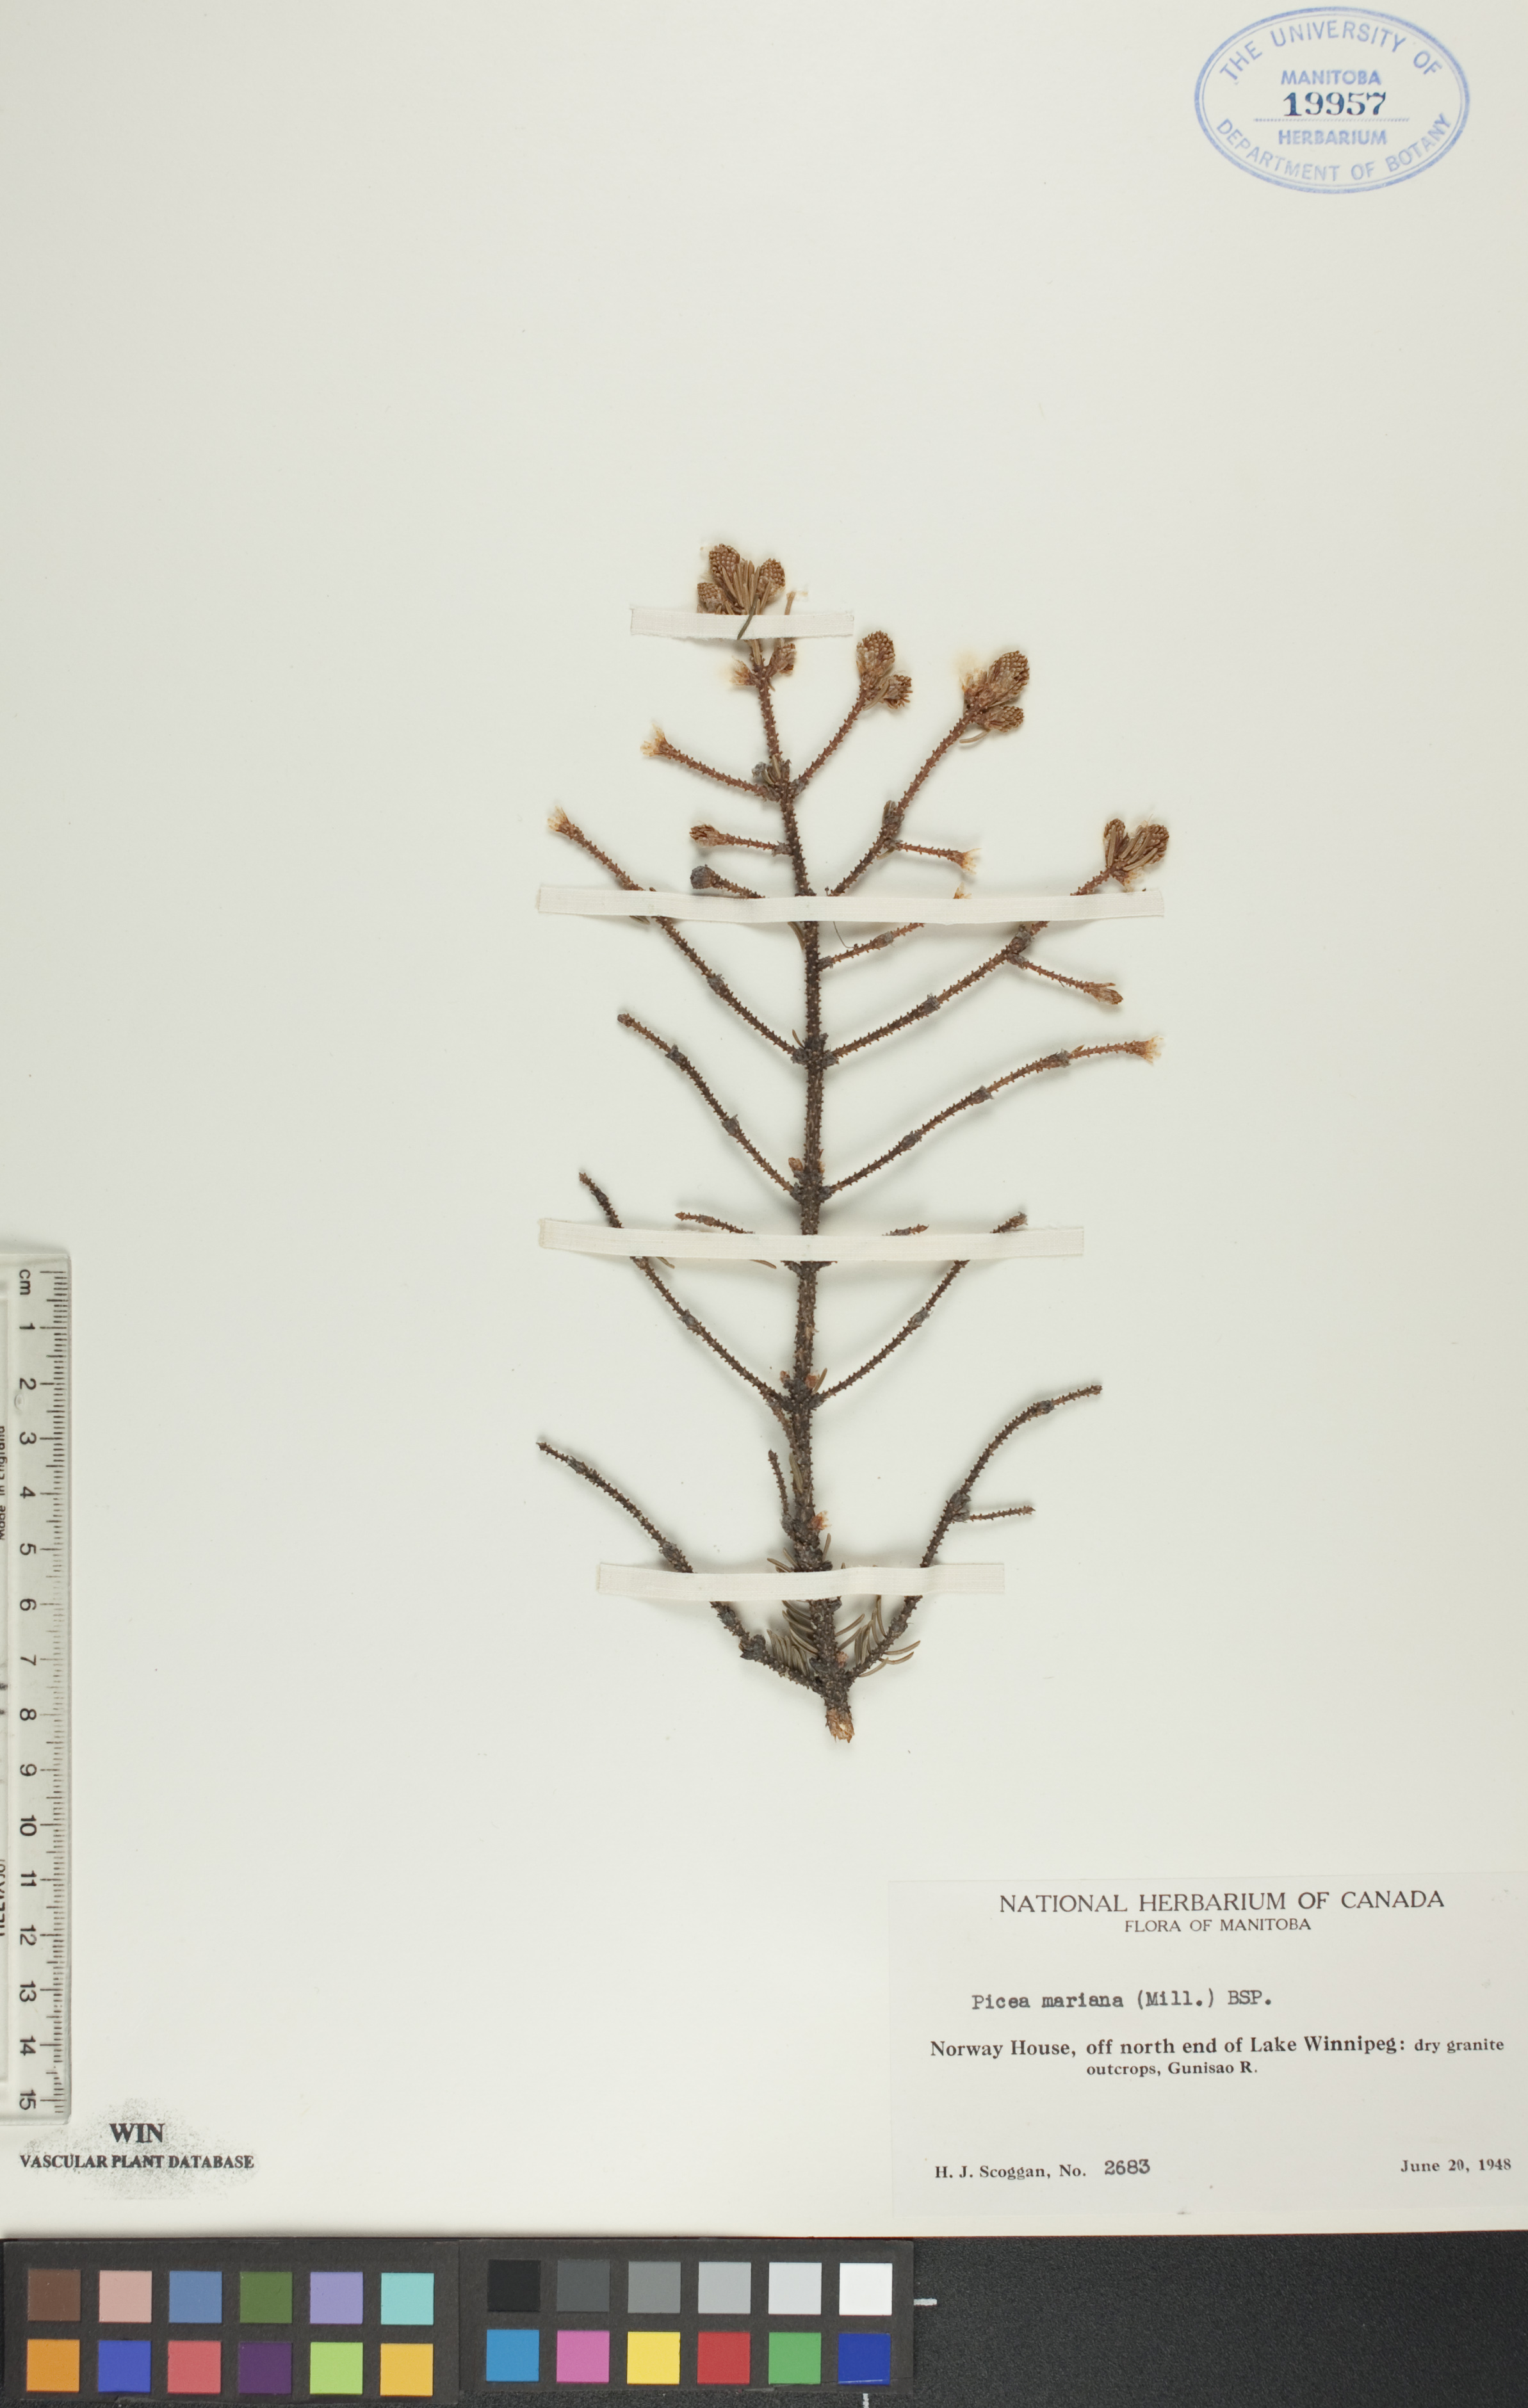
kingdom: Plantae
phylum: Tracheophyta
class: Pinopsida
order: Pinales
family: Pinaceae
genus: Picea
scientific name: Picea mariana
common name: Black spruce
